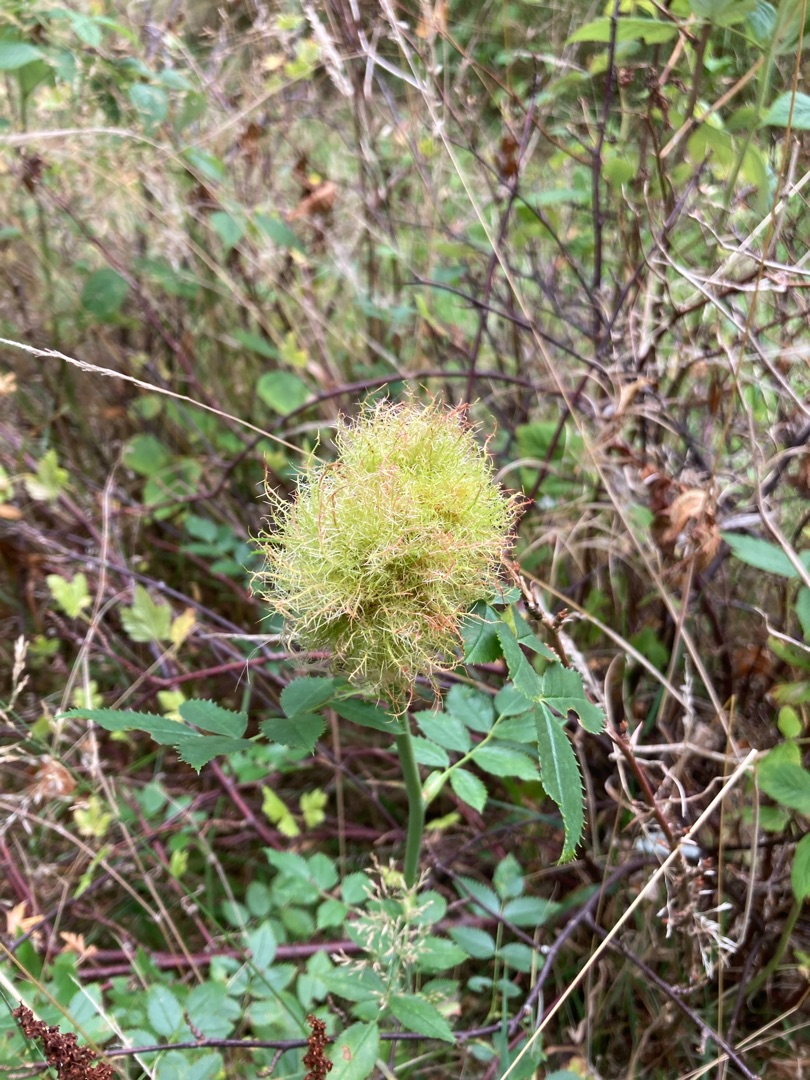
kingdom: Animalia
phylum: Arthropoda
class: Insecta
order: Hymenoptera
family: Cynipidae
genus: Diplolepis
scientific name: Diplolepis rosae
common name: Bedeguargalhveps
